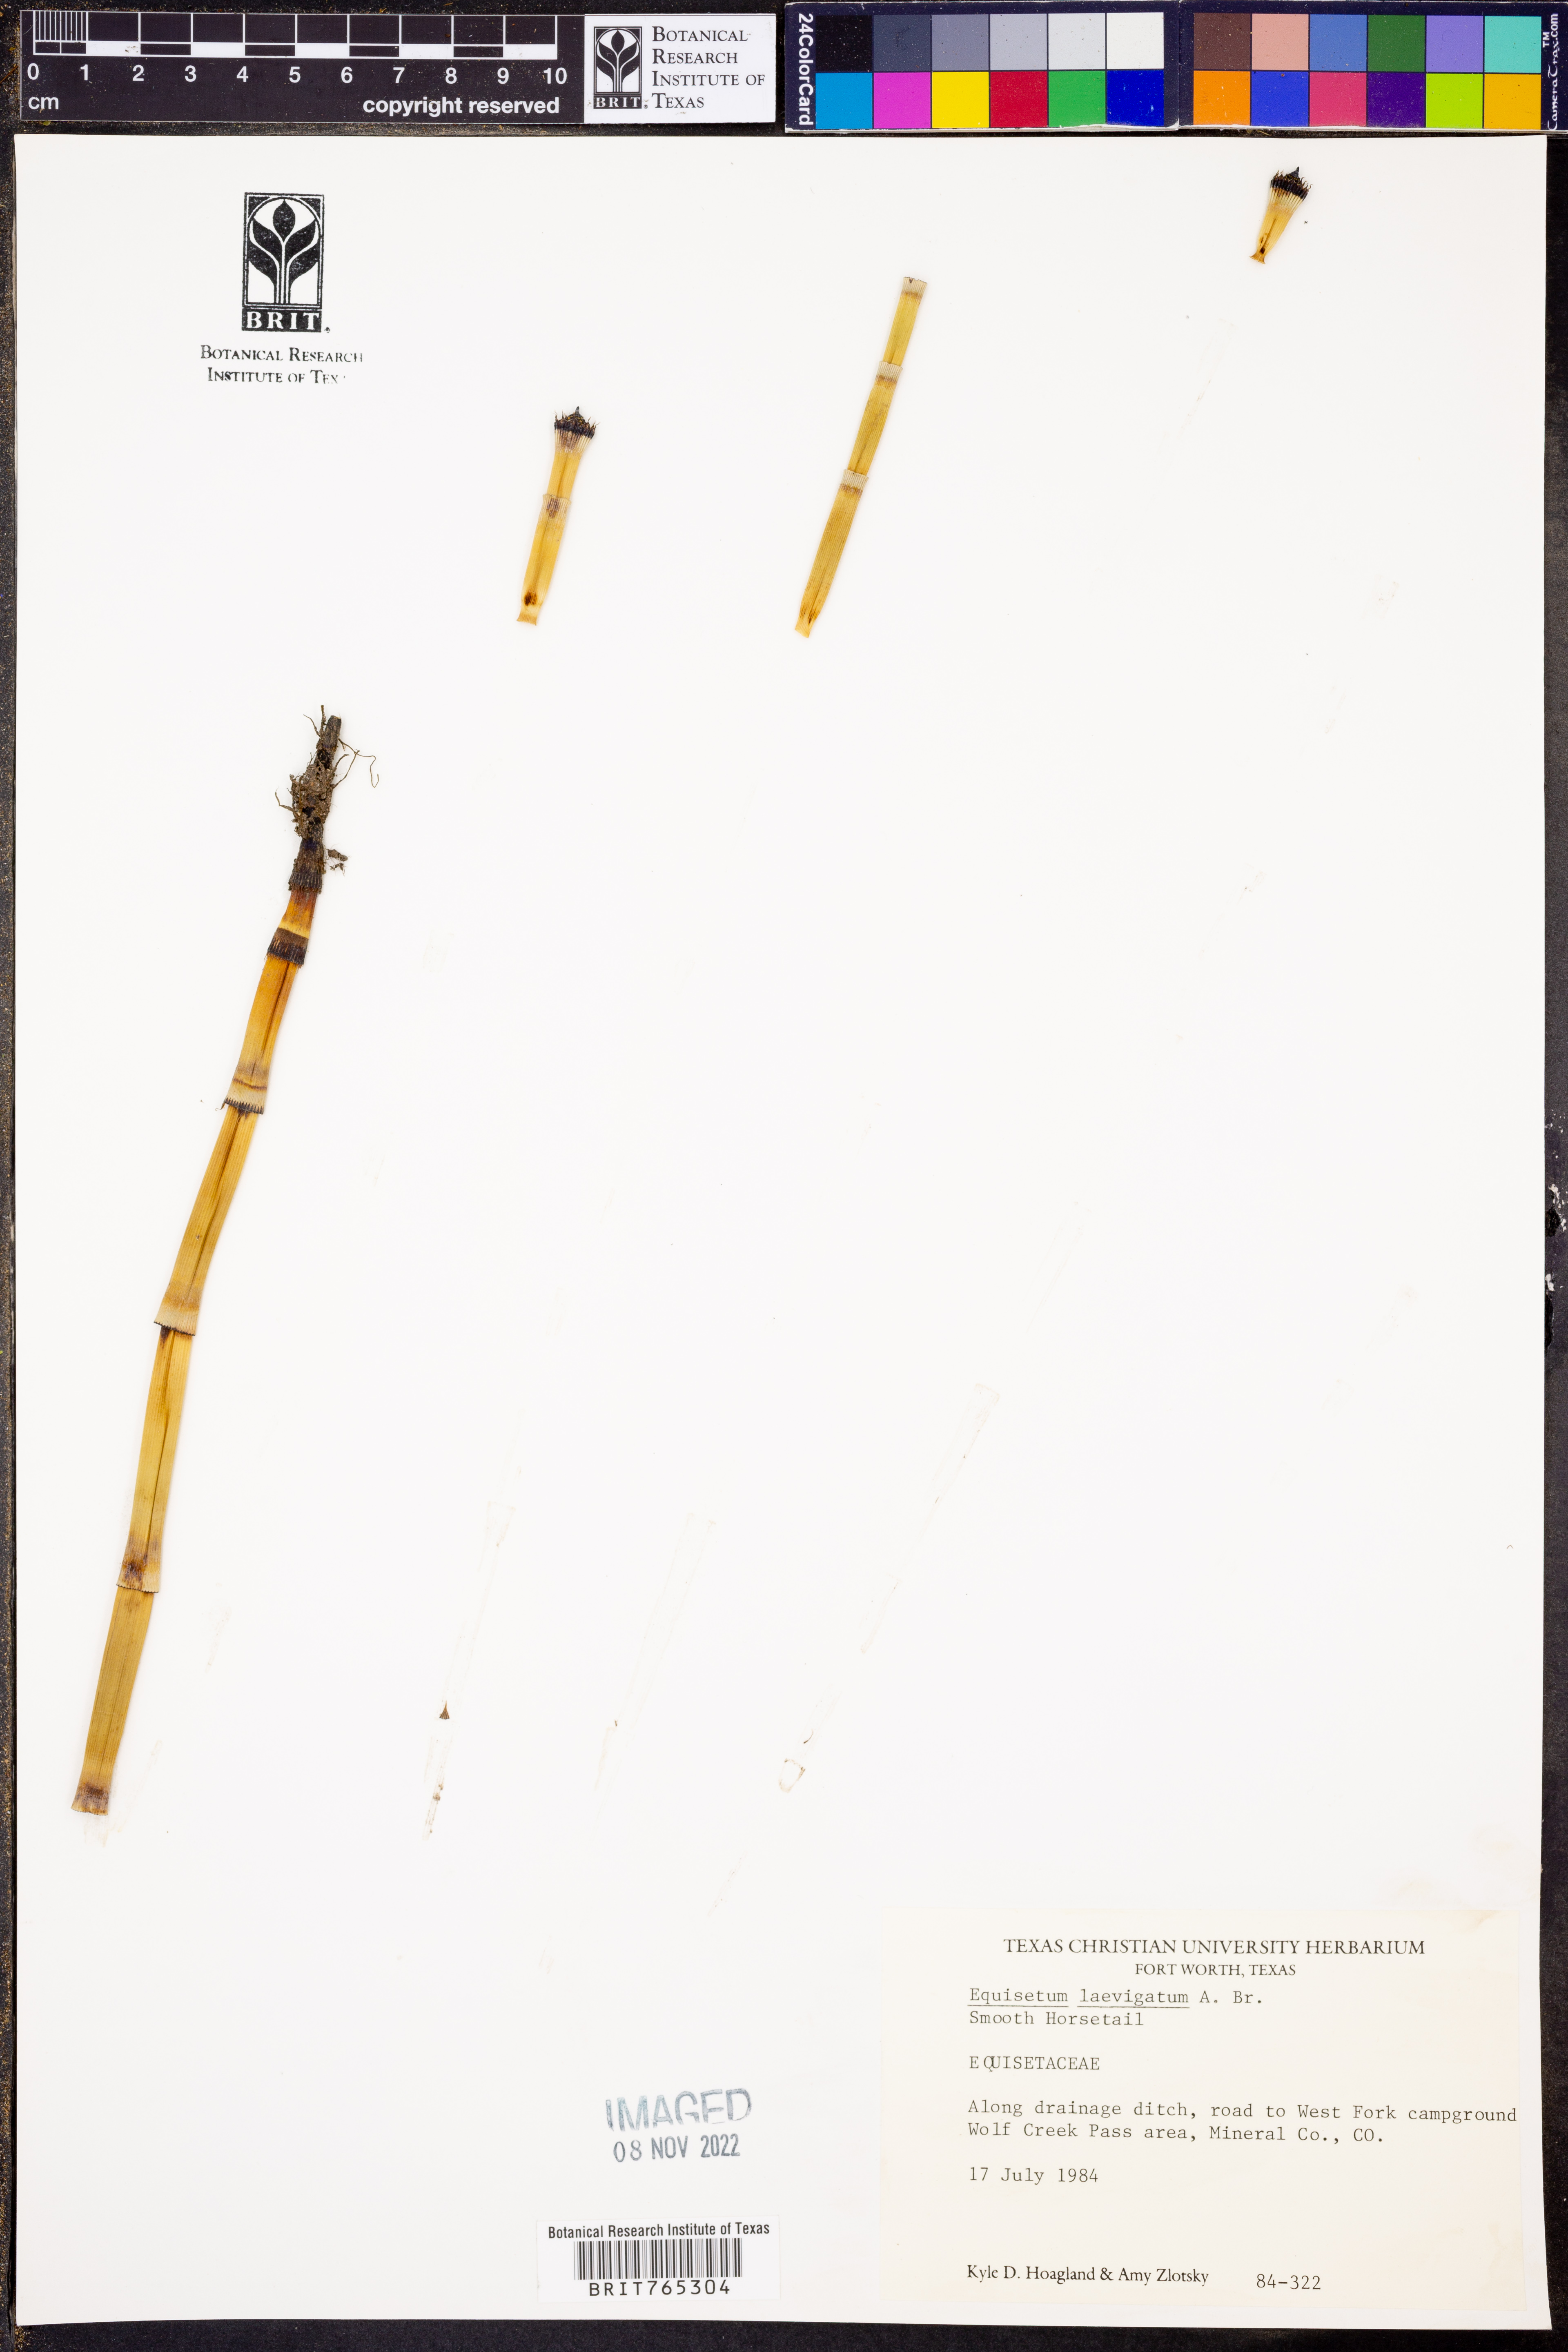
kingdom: Plantae
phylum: Tracheophyta
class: Polypodiopsida
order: Equisetales
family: Equisetaceae
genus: Equisetum
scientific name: Equisetum laevigatum
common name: Smooth scouring-rush
